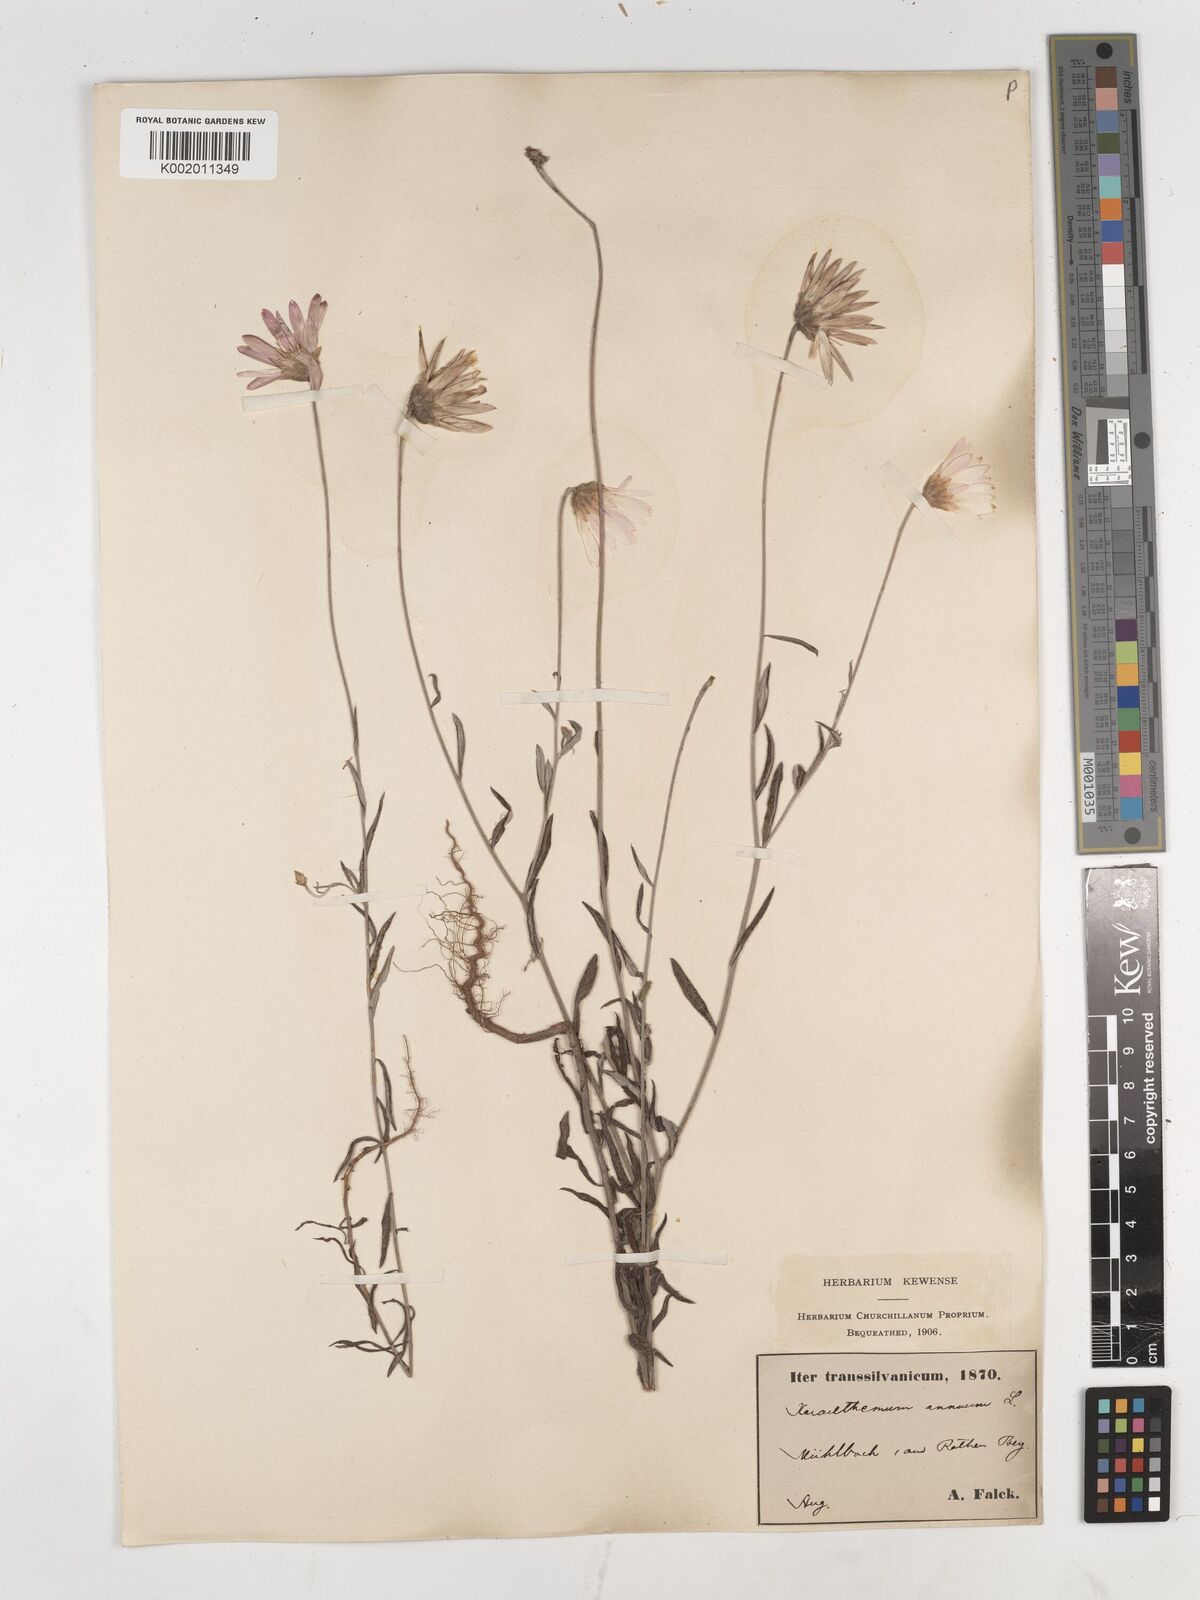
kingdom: Plantae
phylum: Tracheophyta
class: Magnoliopsida
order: Asterales
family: Asteraceae
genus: Xeranthemum
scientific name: Xeranthemum annuum
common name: Immortelle
